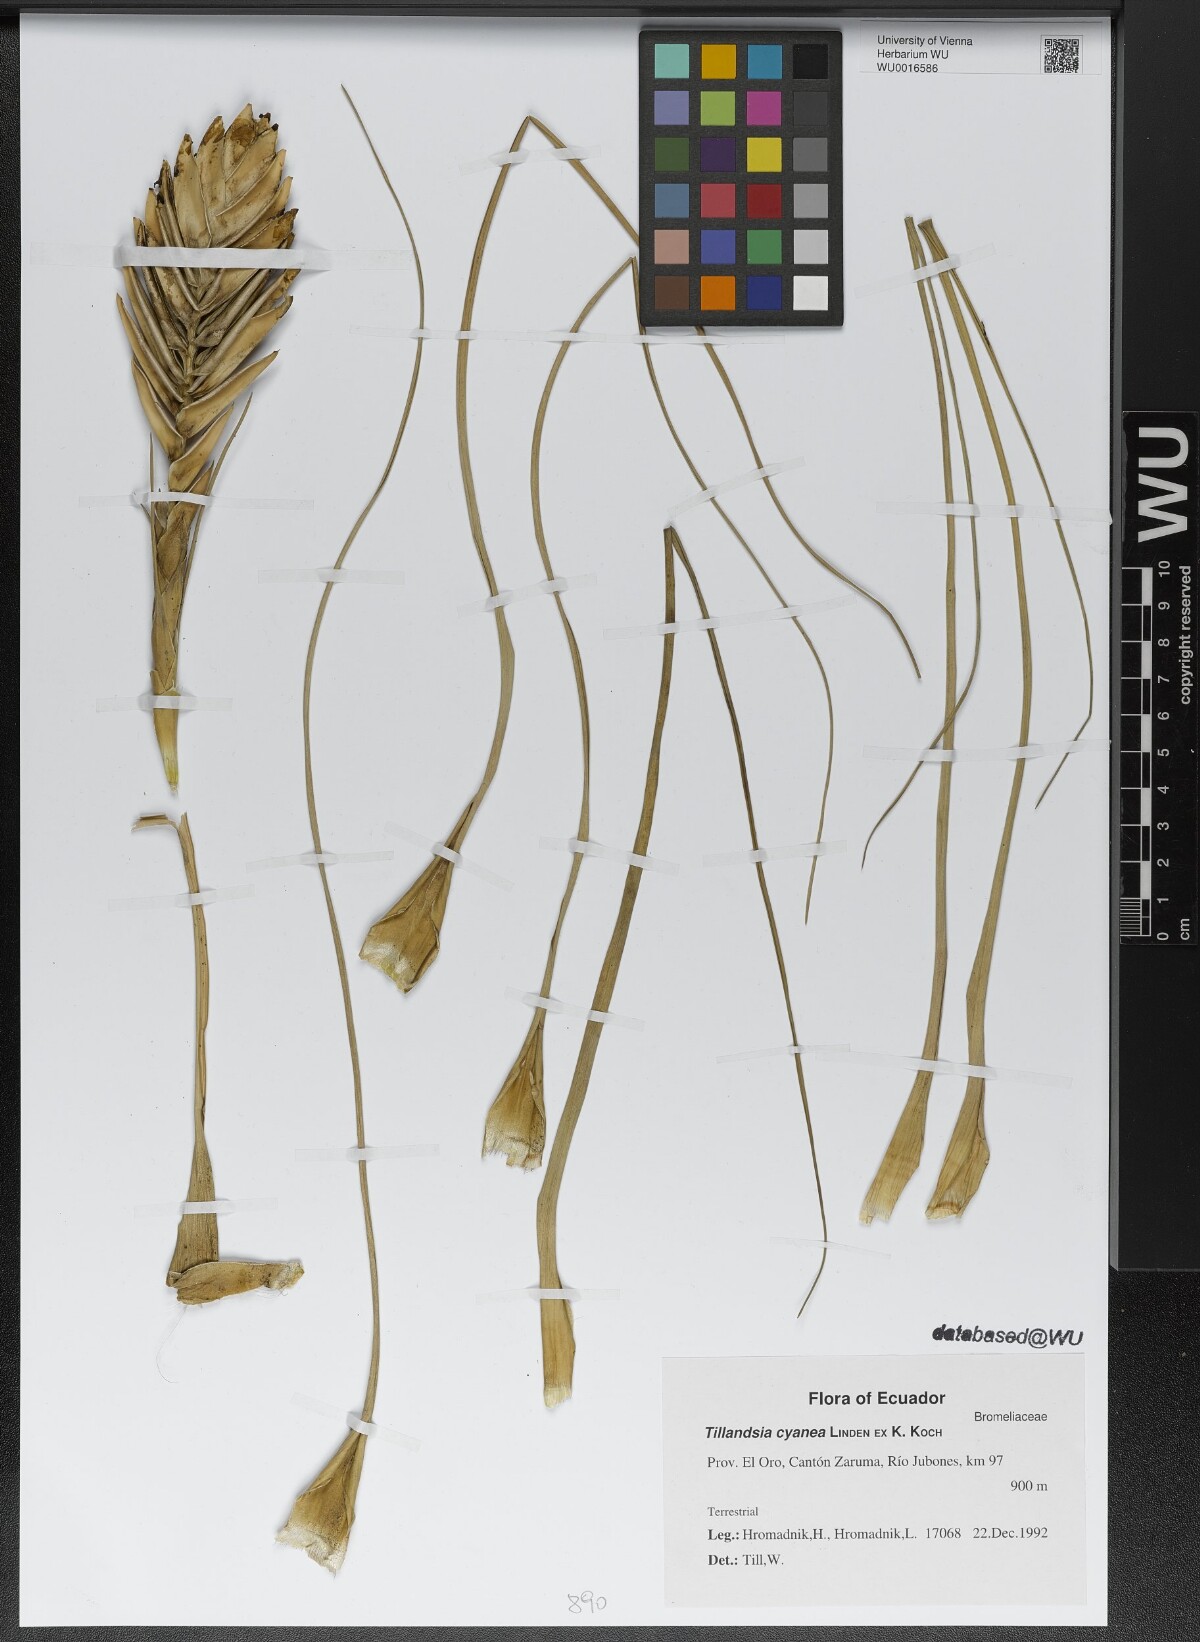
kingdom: Plantae
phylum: Tracheophyta
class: Liliopsida
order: Poales
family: Bromeliaceae
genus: Tillandsia
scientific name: Tillandsia cyanea
